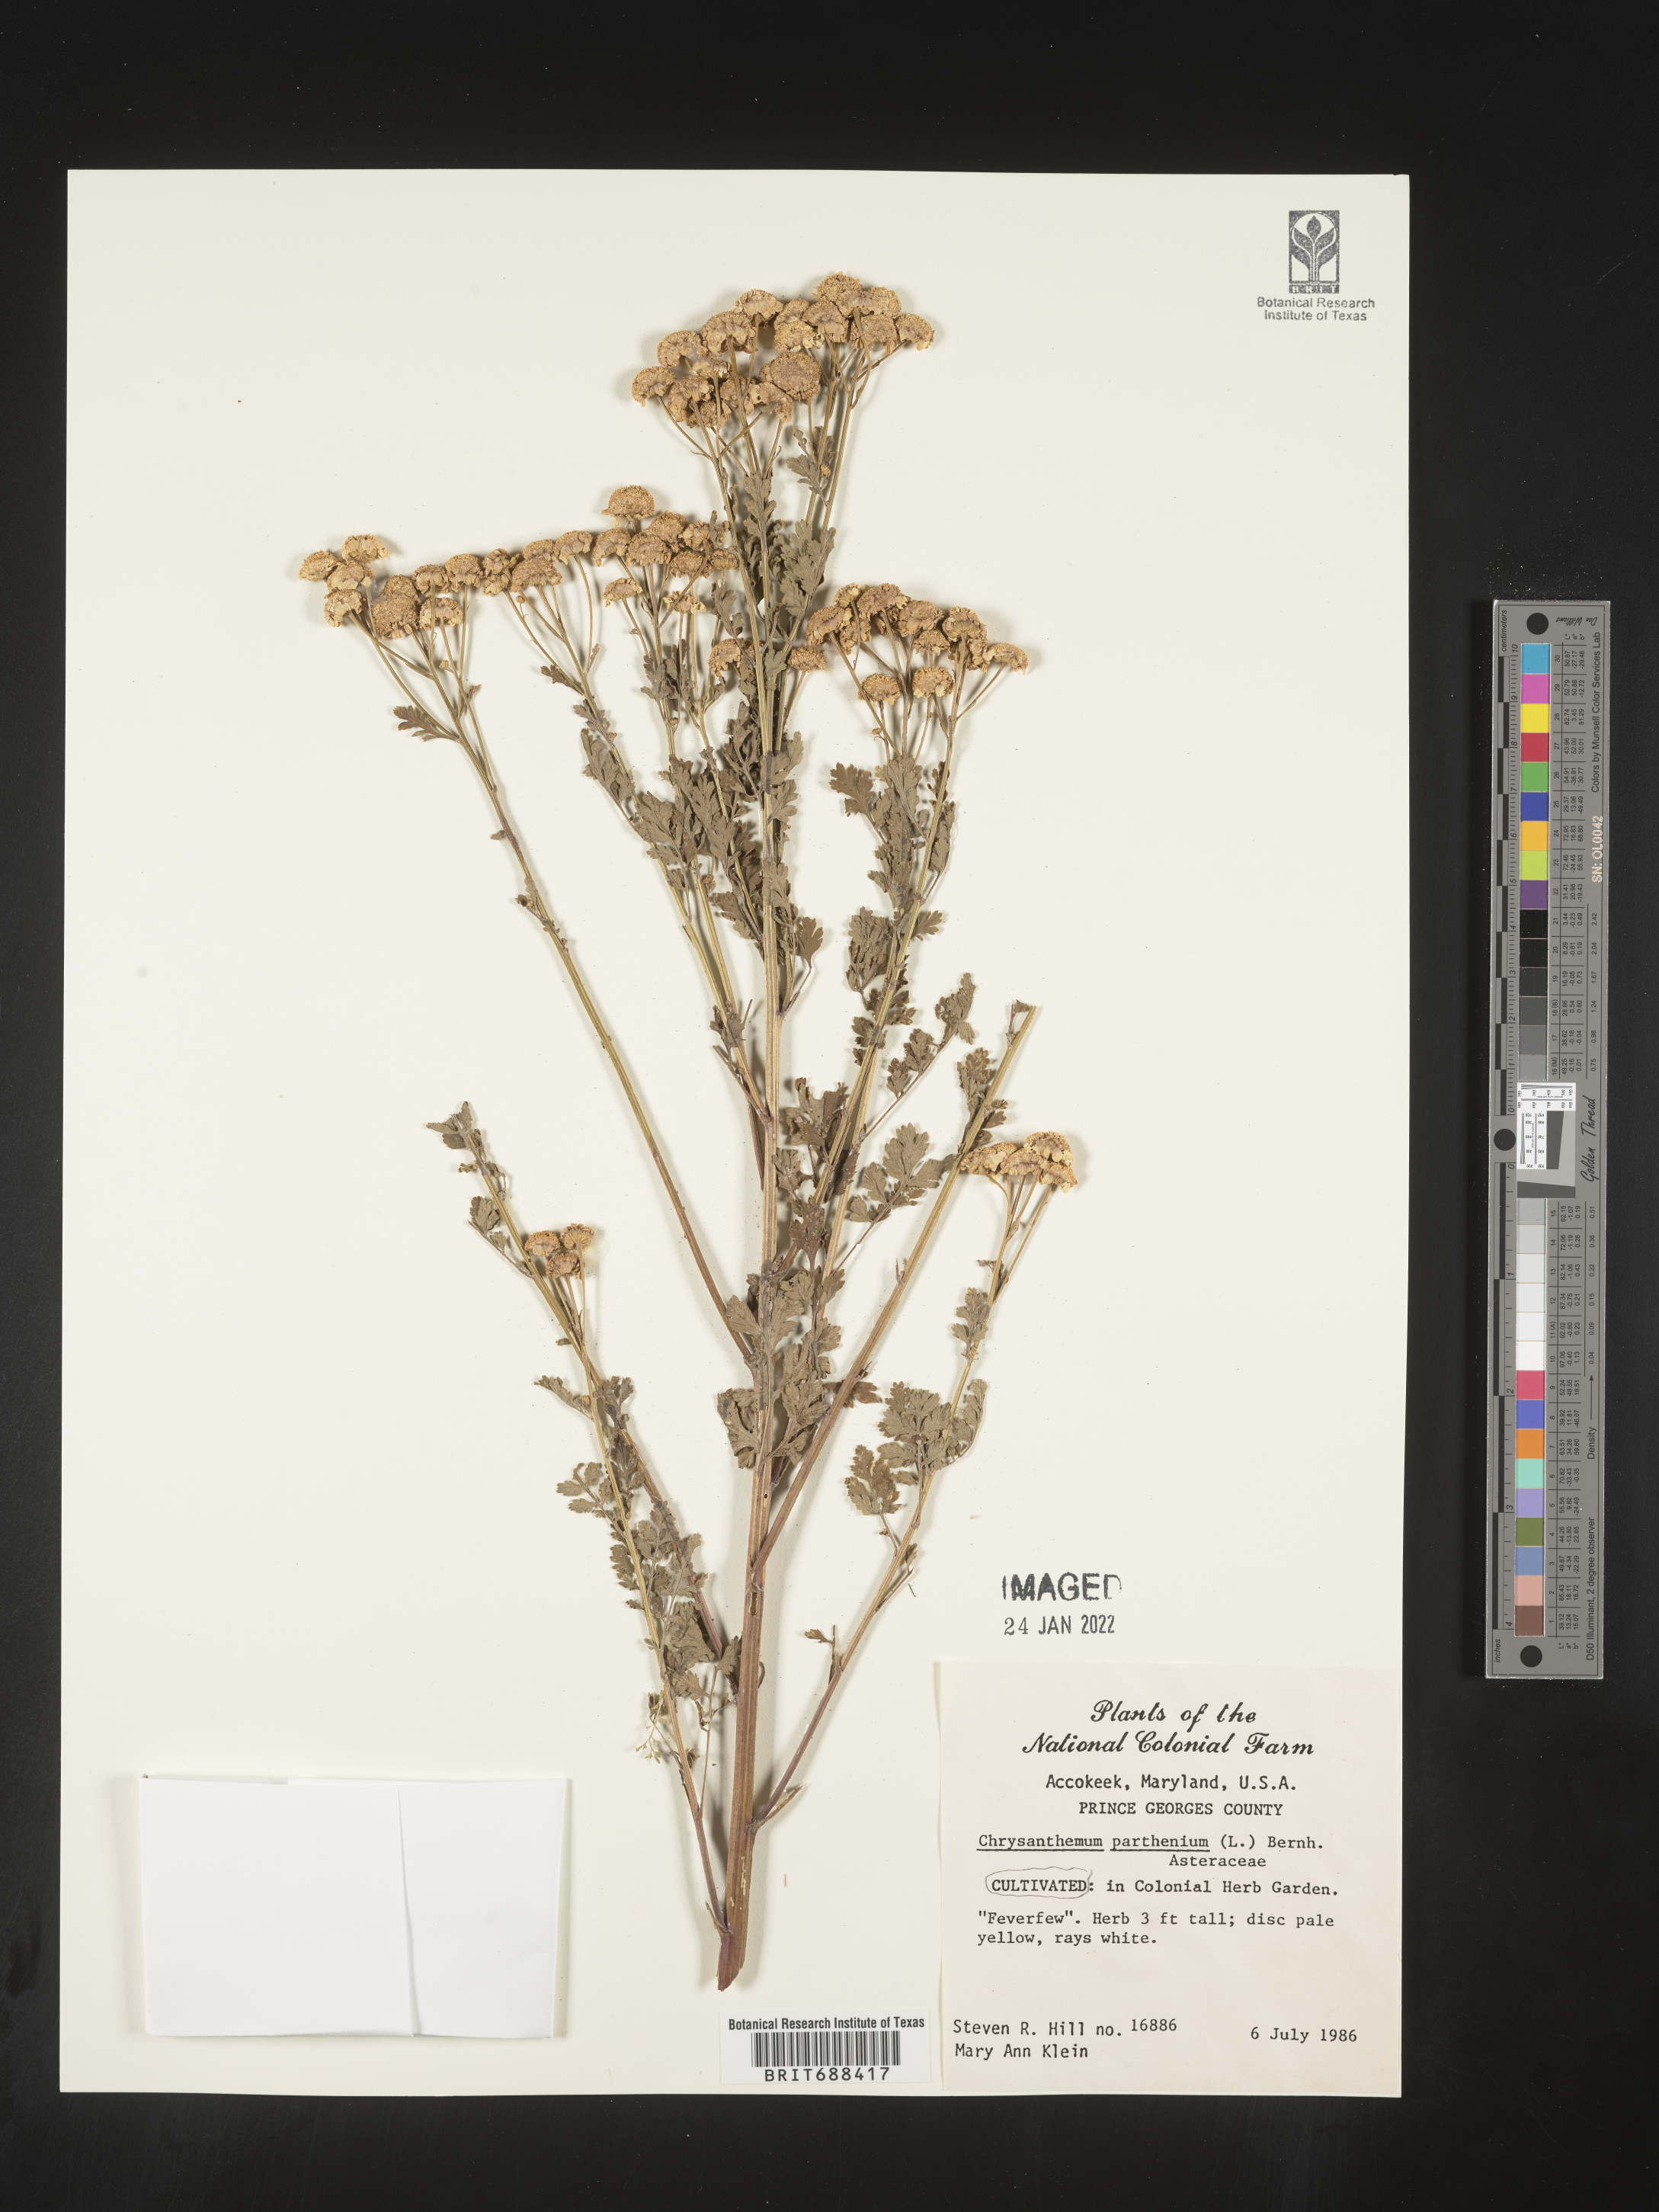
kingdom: Plantae
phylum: Tracheophyta
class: Magnoliopsida
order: Asterales
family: Asteraceae
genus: Chrysanthemum
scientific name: Chrysanthemum
